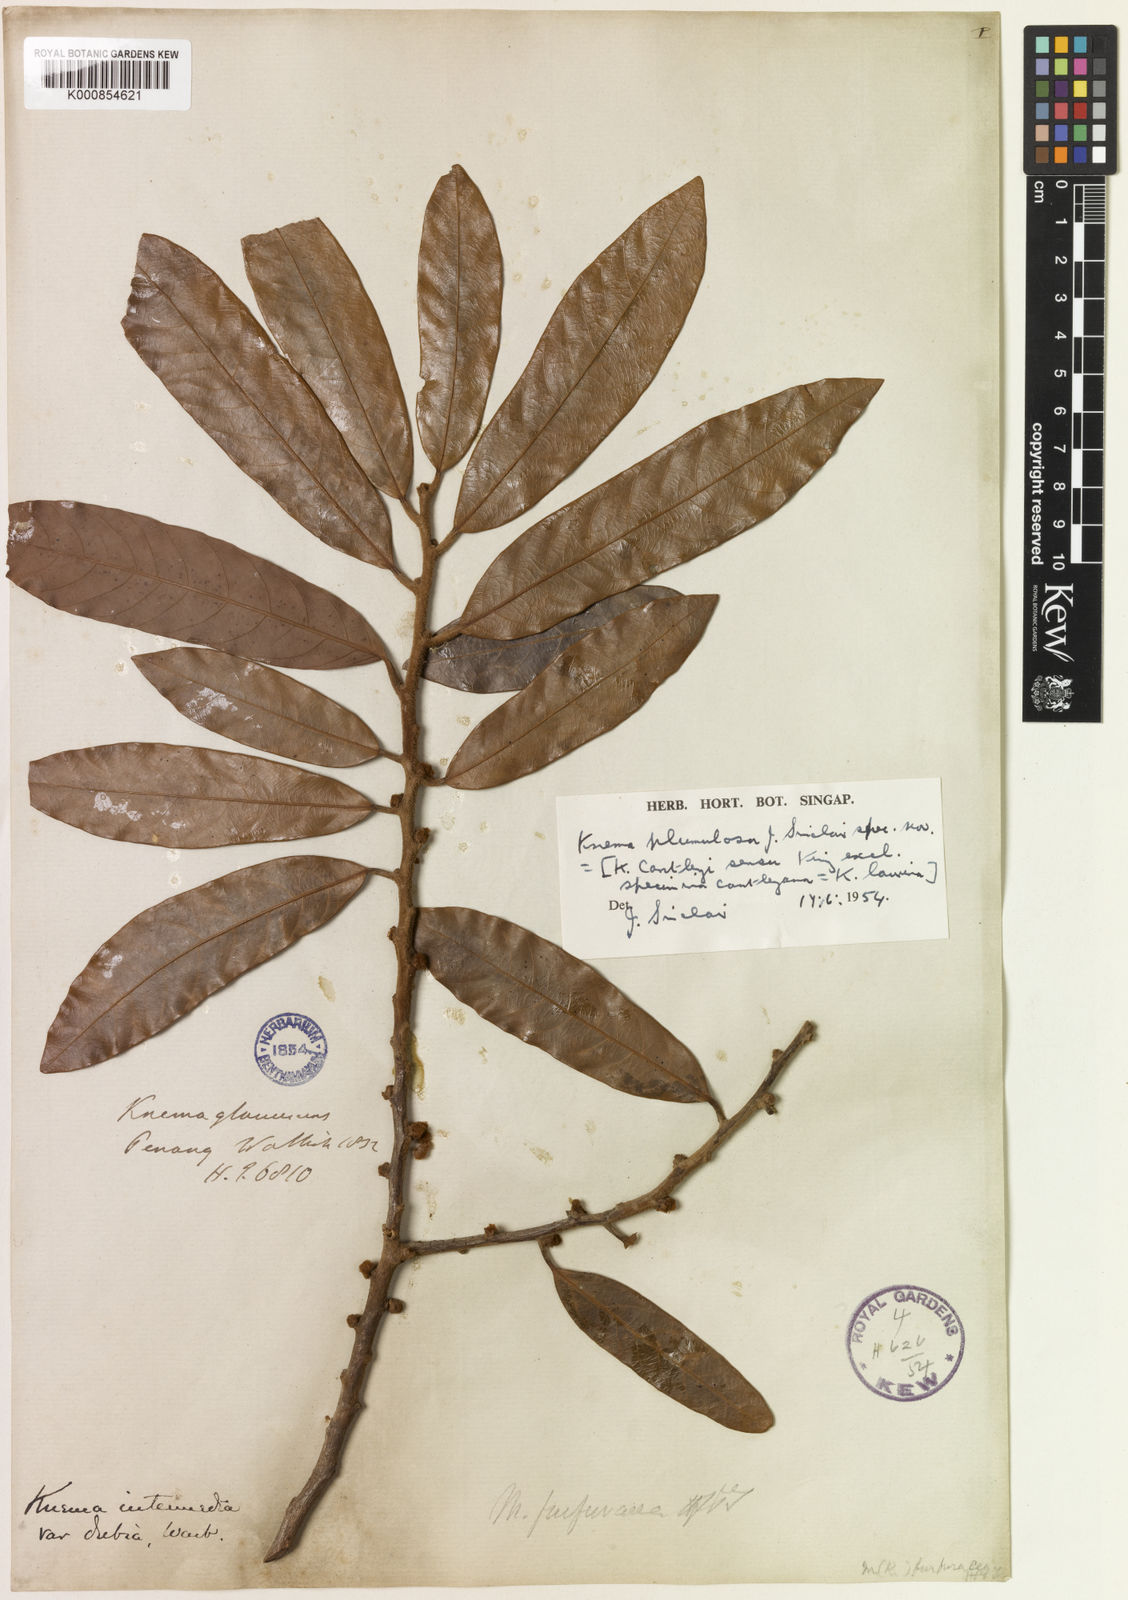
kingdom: Plantae
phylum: Tracheophyta
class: Magnoliopsida
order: Magnoliales
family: Myristicaceae
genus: Knema
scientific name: Knema plumulosa
